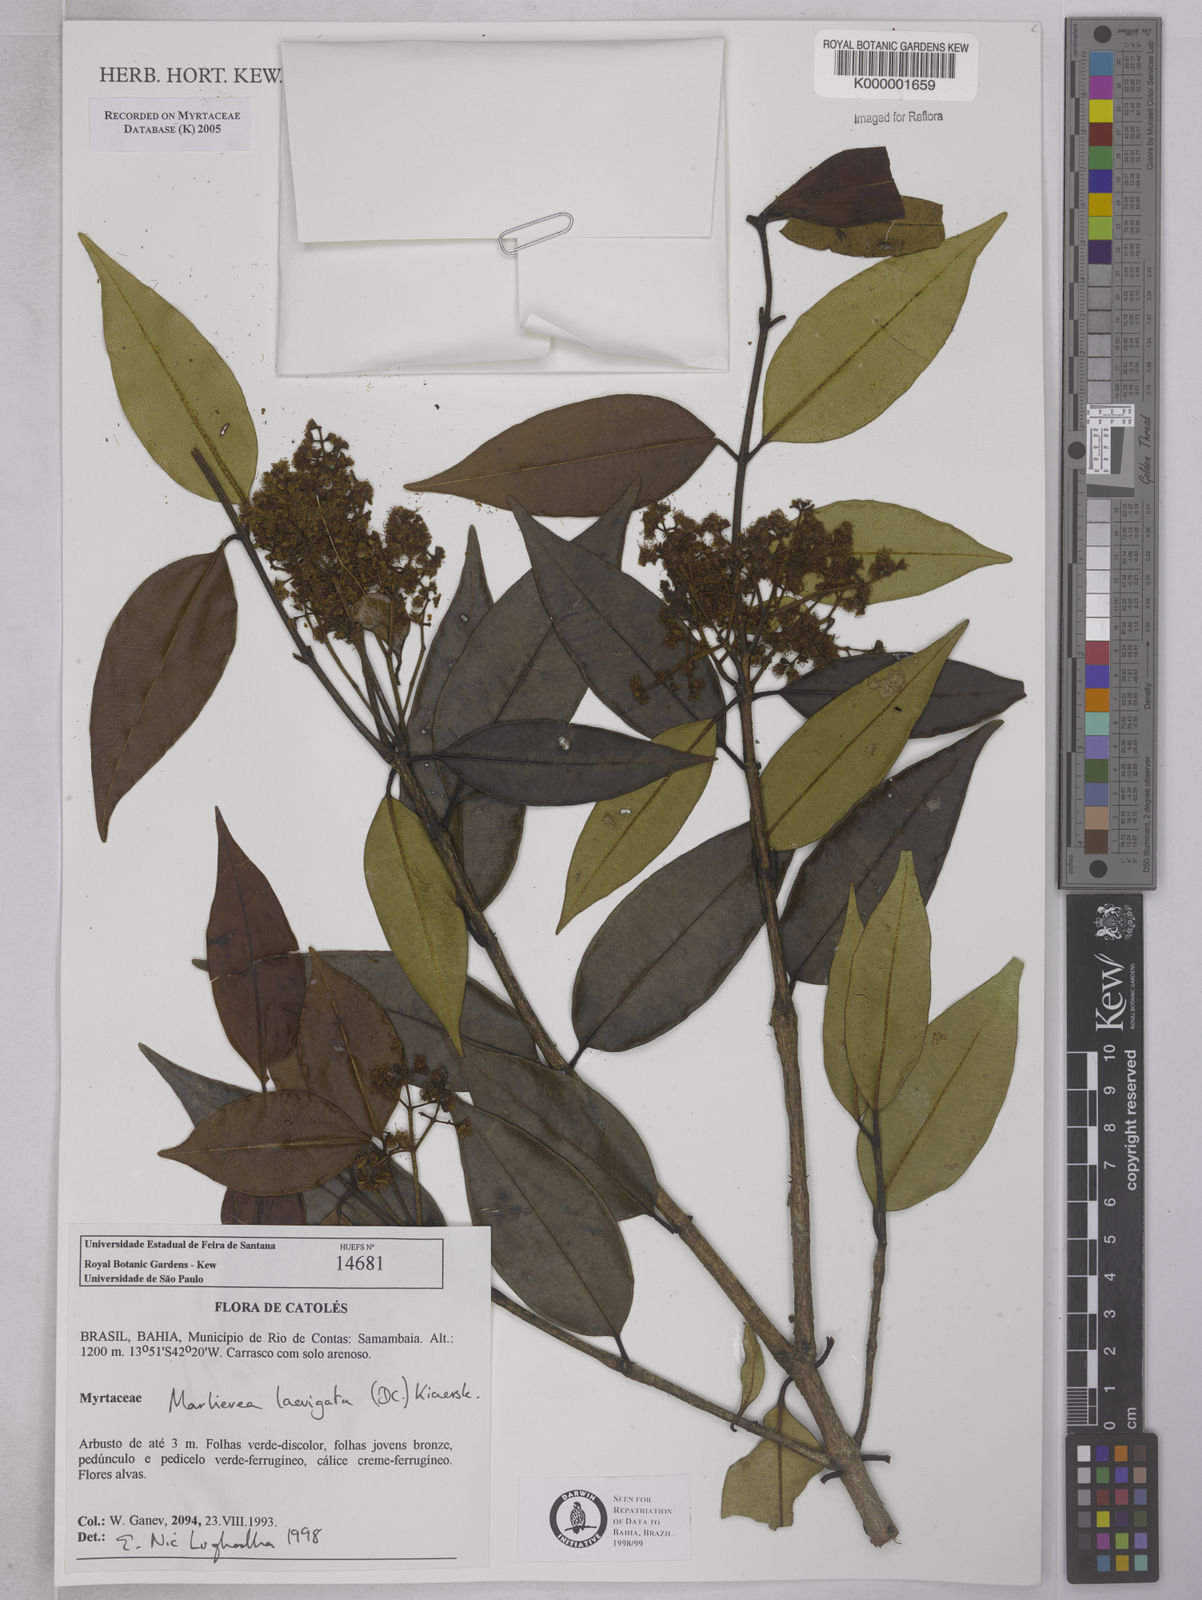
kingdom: Plantae
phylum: Tracheophyta
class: Magnoliopsida
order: Myrtales
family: Myrtaceae
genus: Myrcia
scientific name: Myrcia multipunctata
